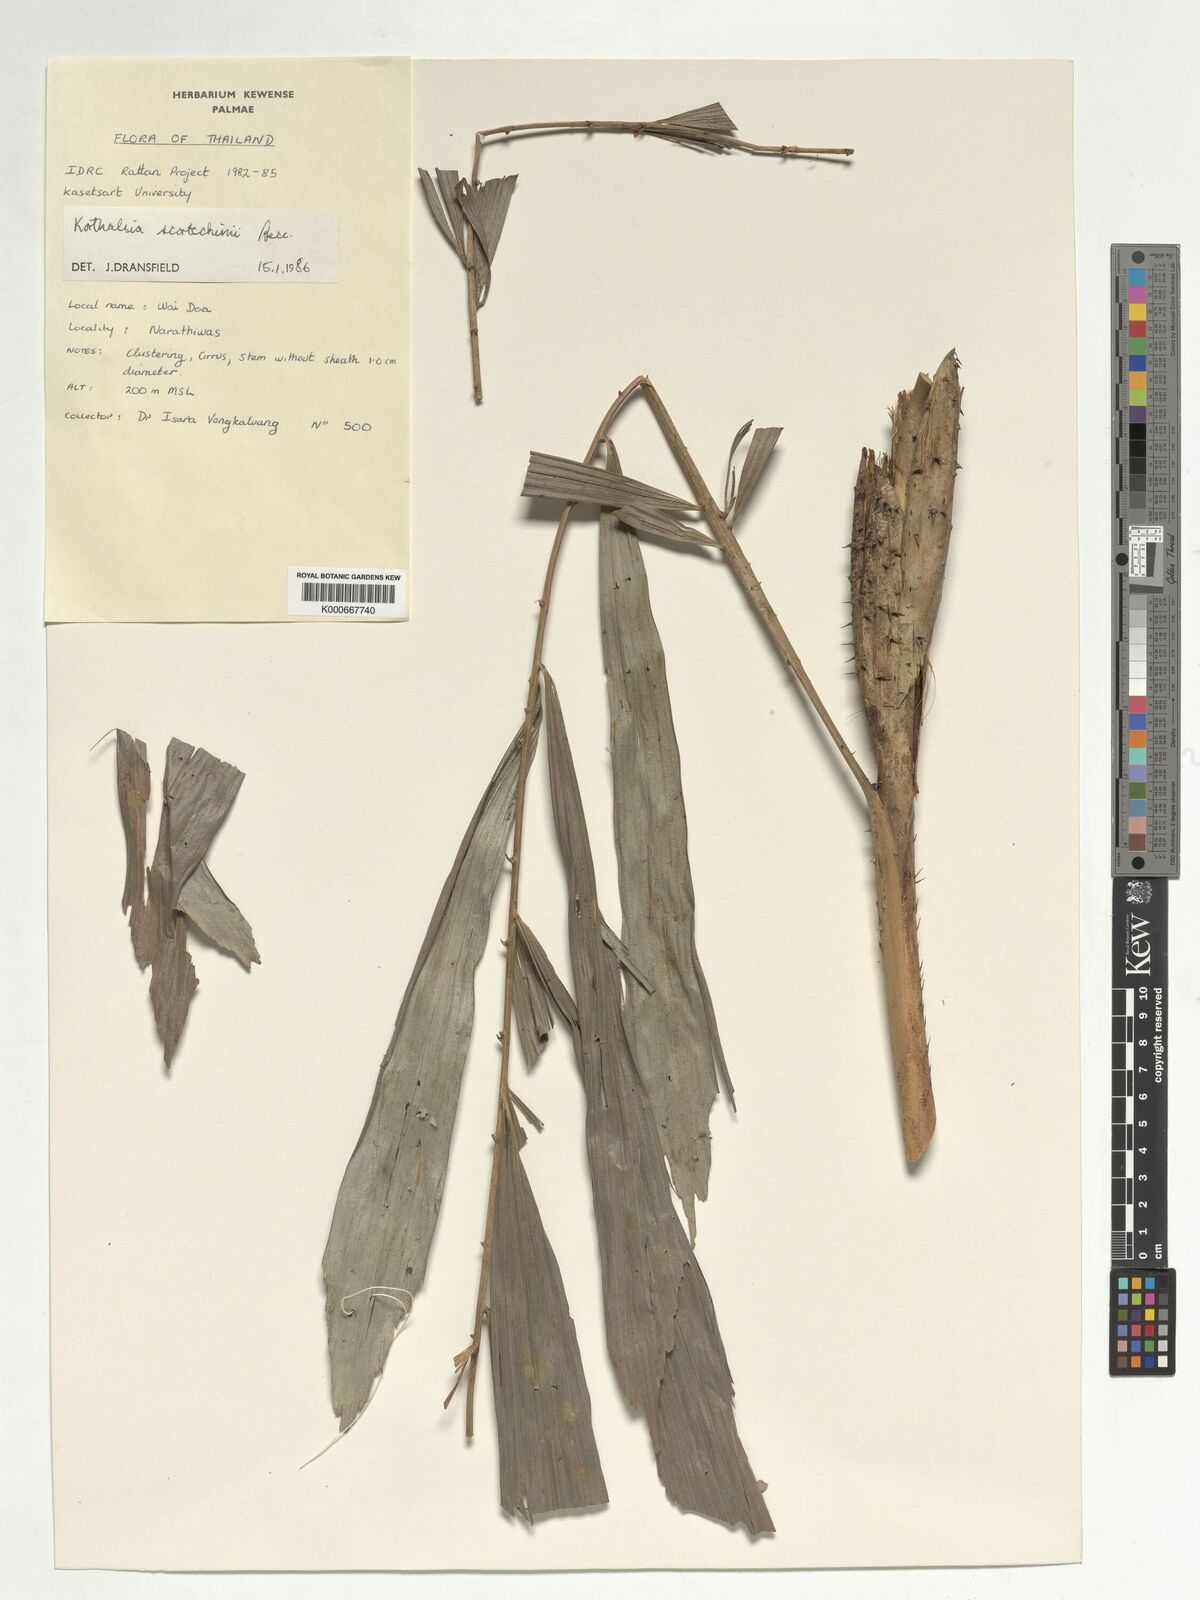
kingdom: Plantae
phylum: Tracheophyta
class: Liliopsida
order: Arecales
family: Arecaceae
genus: Korthalsia
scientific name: Korthalsia scortechinii
